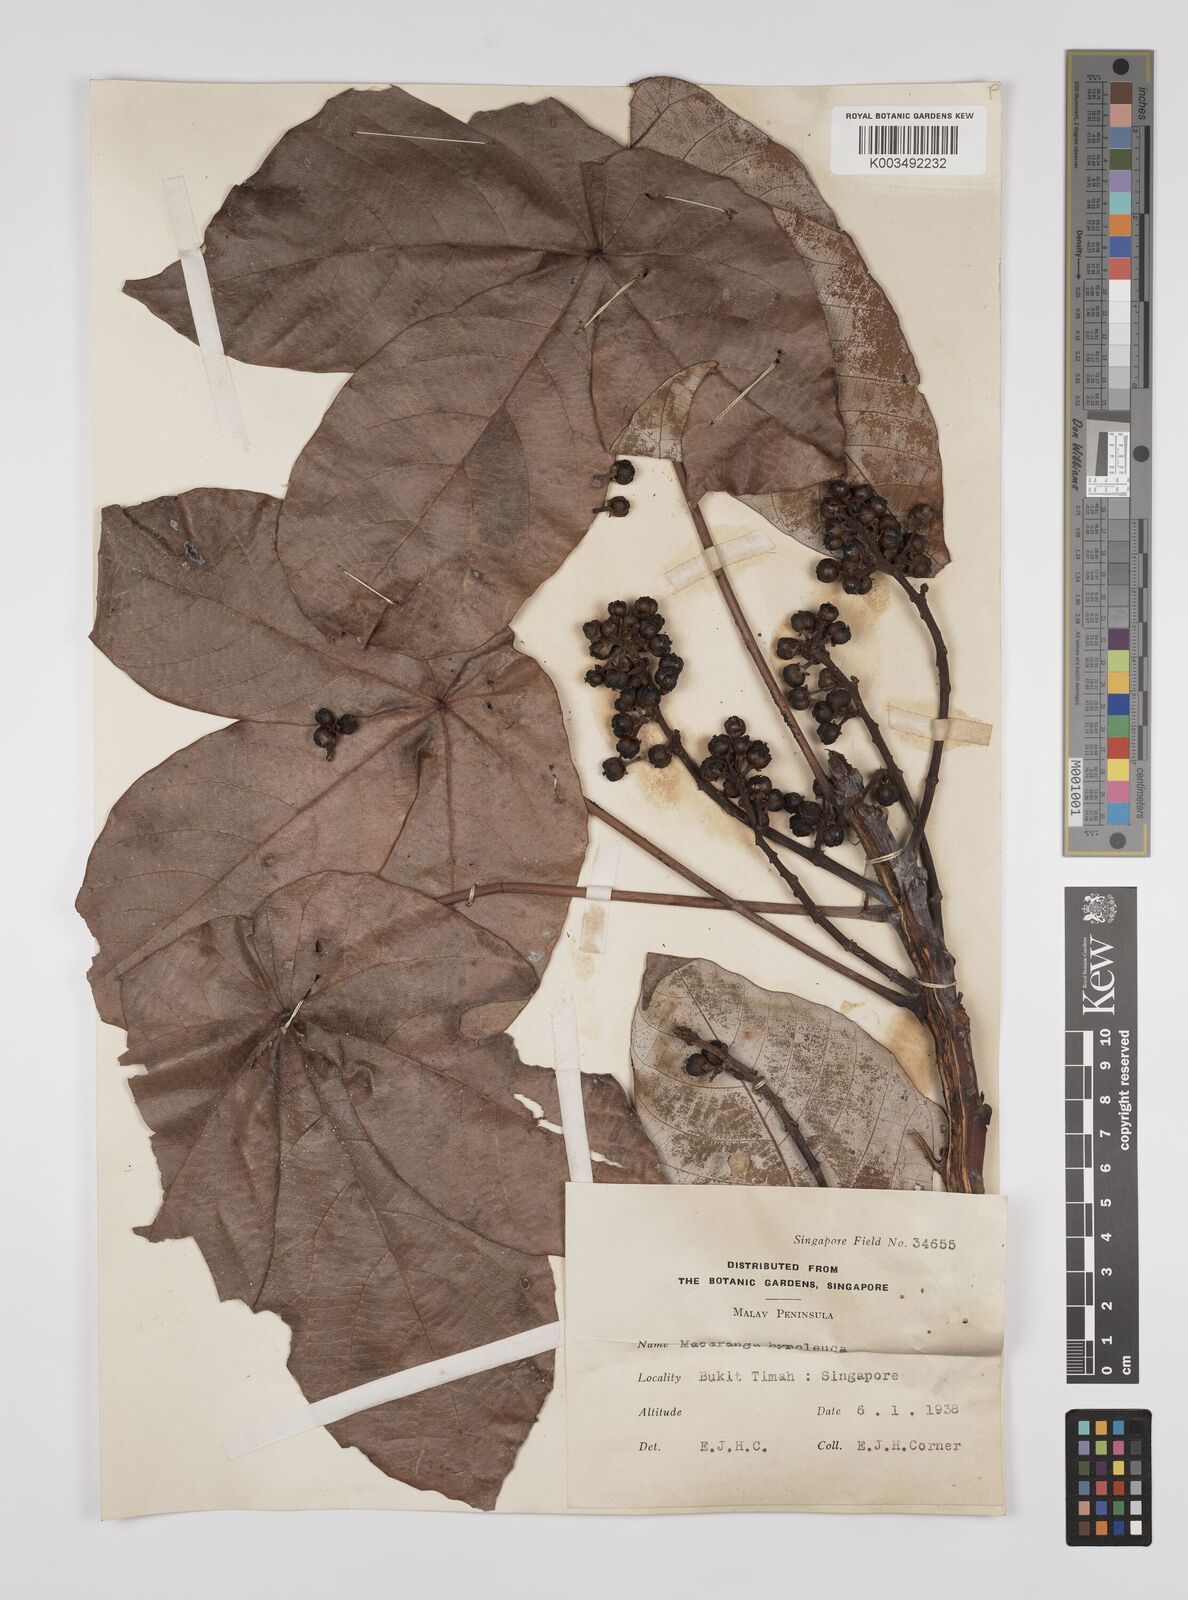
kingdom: Plantae
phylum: Tracheophyta
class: Magnoliopsida
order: Malpighiales
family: Euphorbiaceae
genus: Macaranga
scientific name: Macaranga hypoleuca
